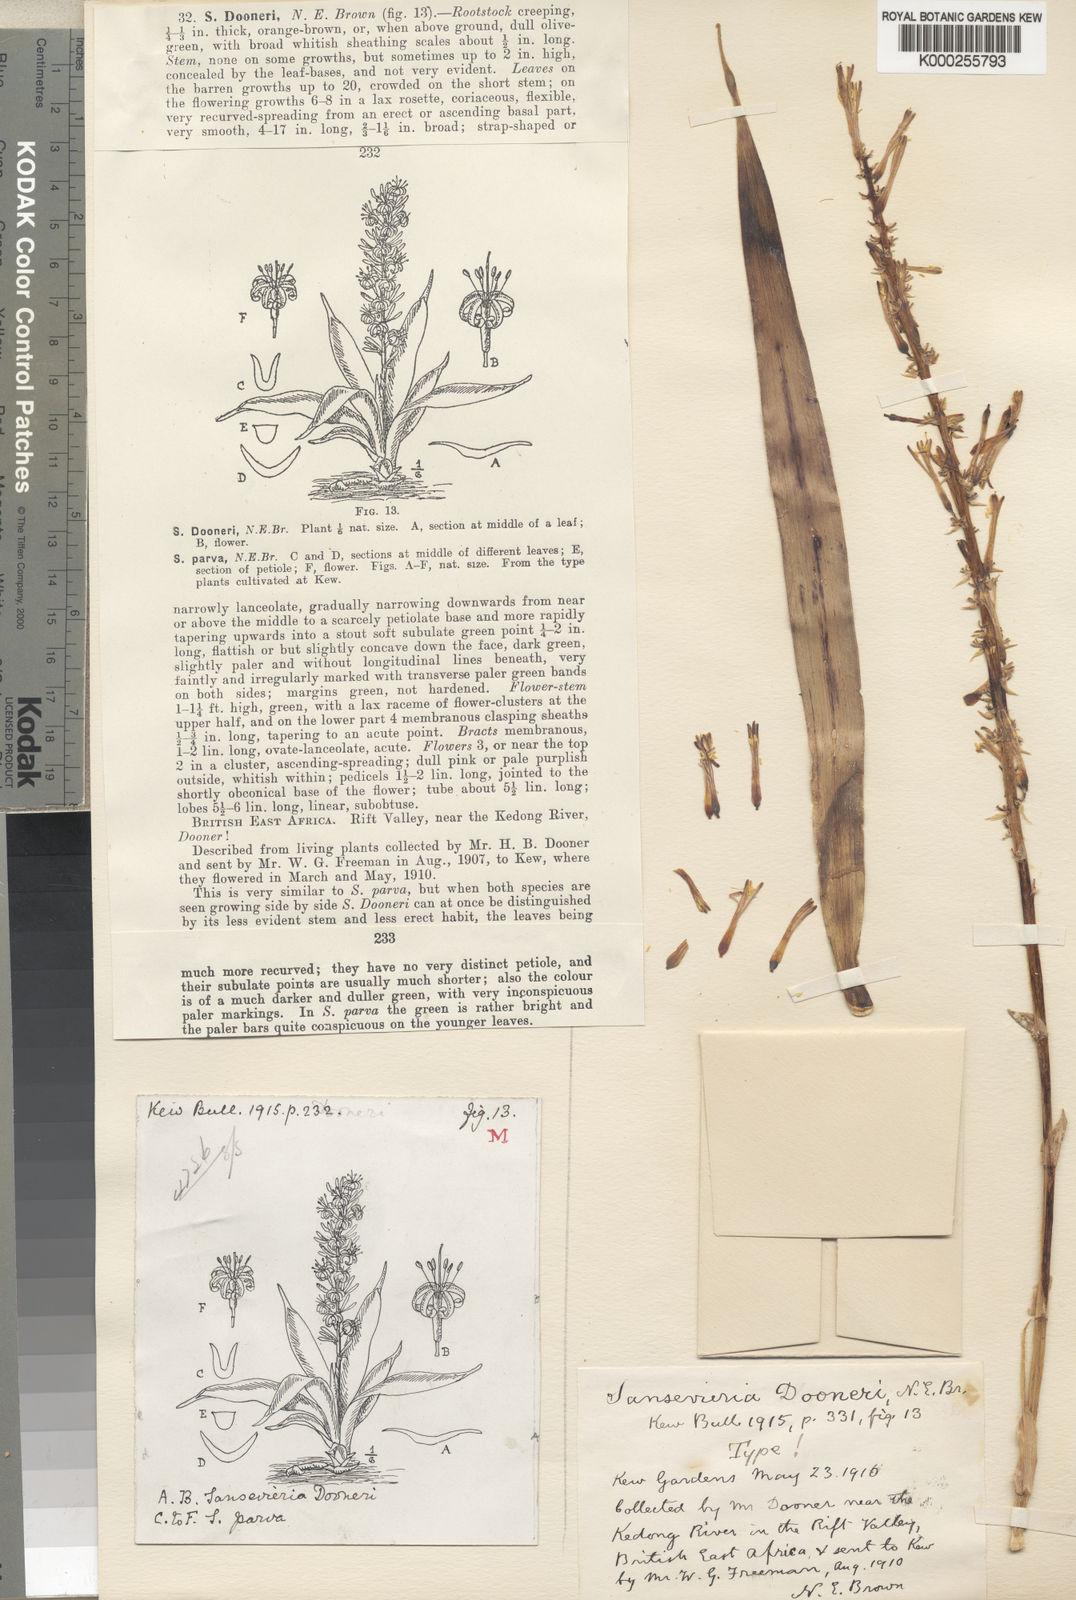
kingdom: Plantae
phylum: Tracheophyta
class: Liliopsida
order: Asparagales
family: Asparagaceae
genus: Dracaena
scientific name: Dracaena parva
